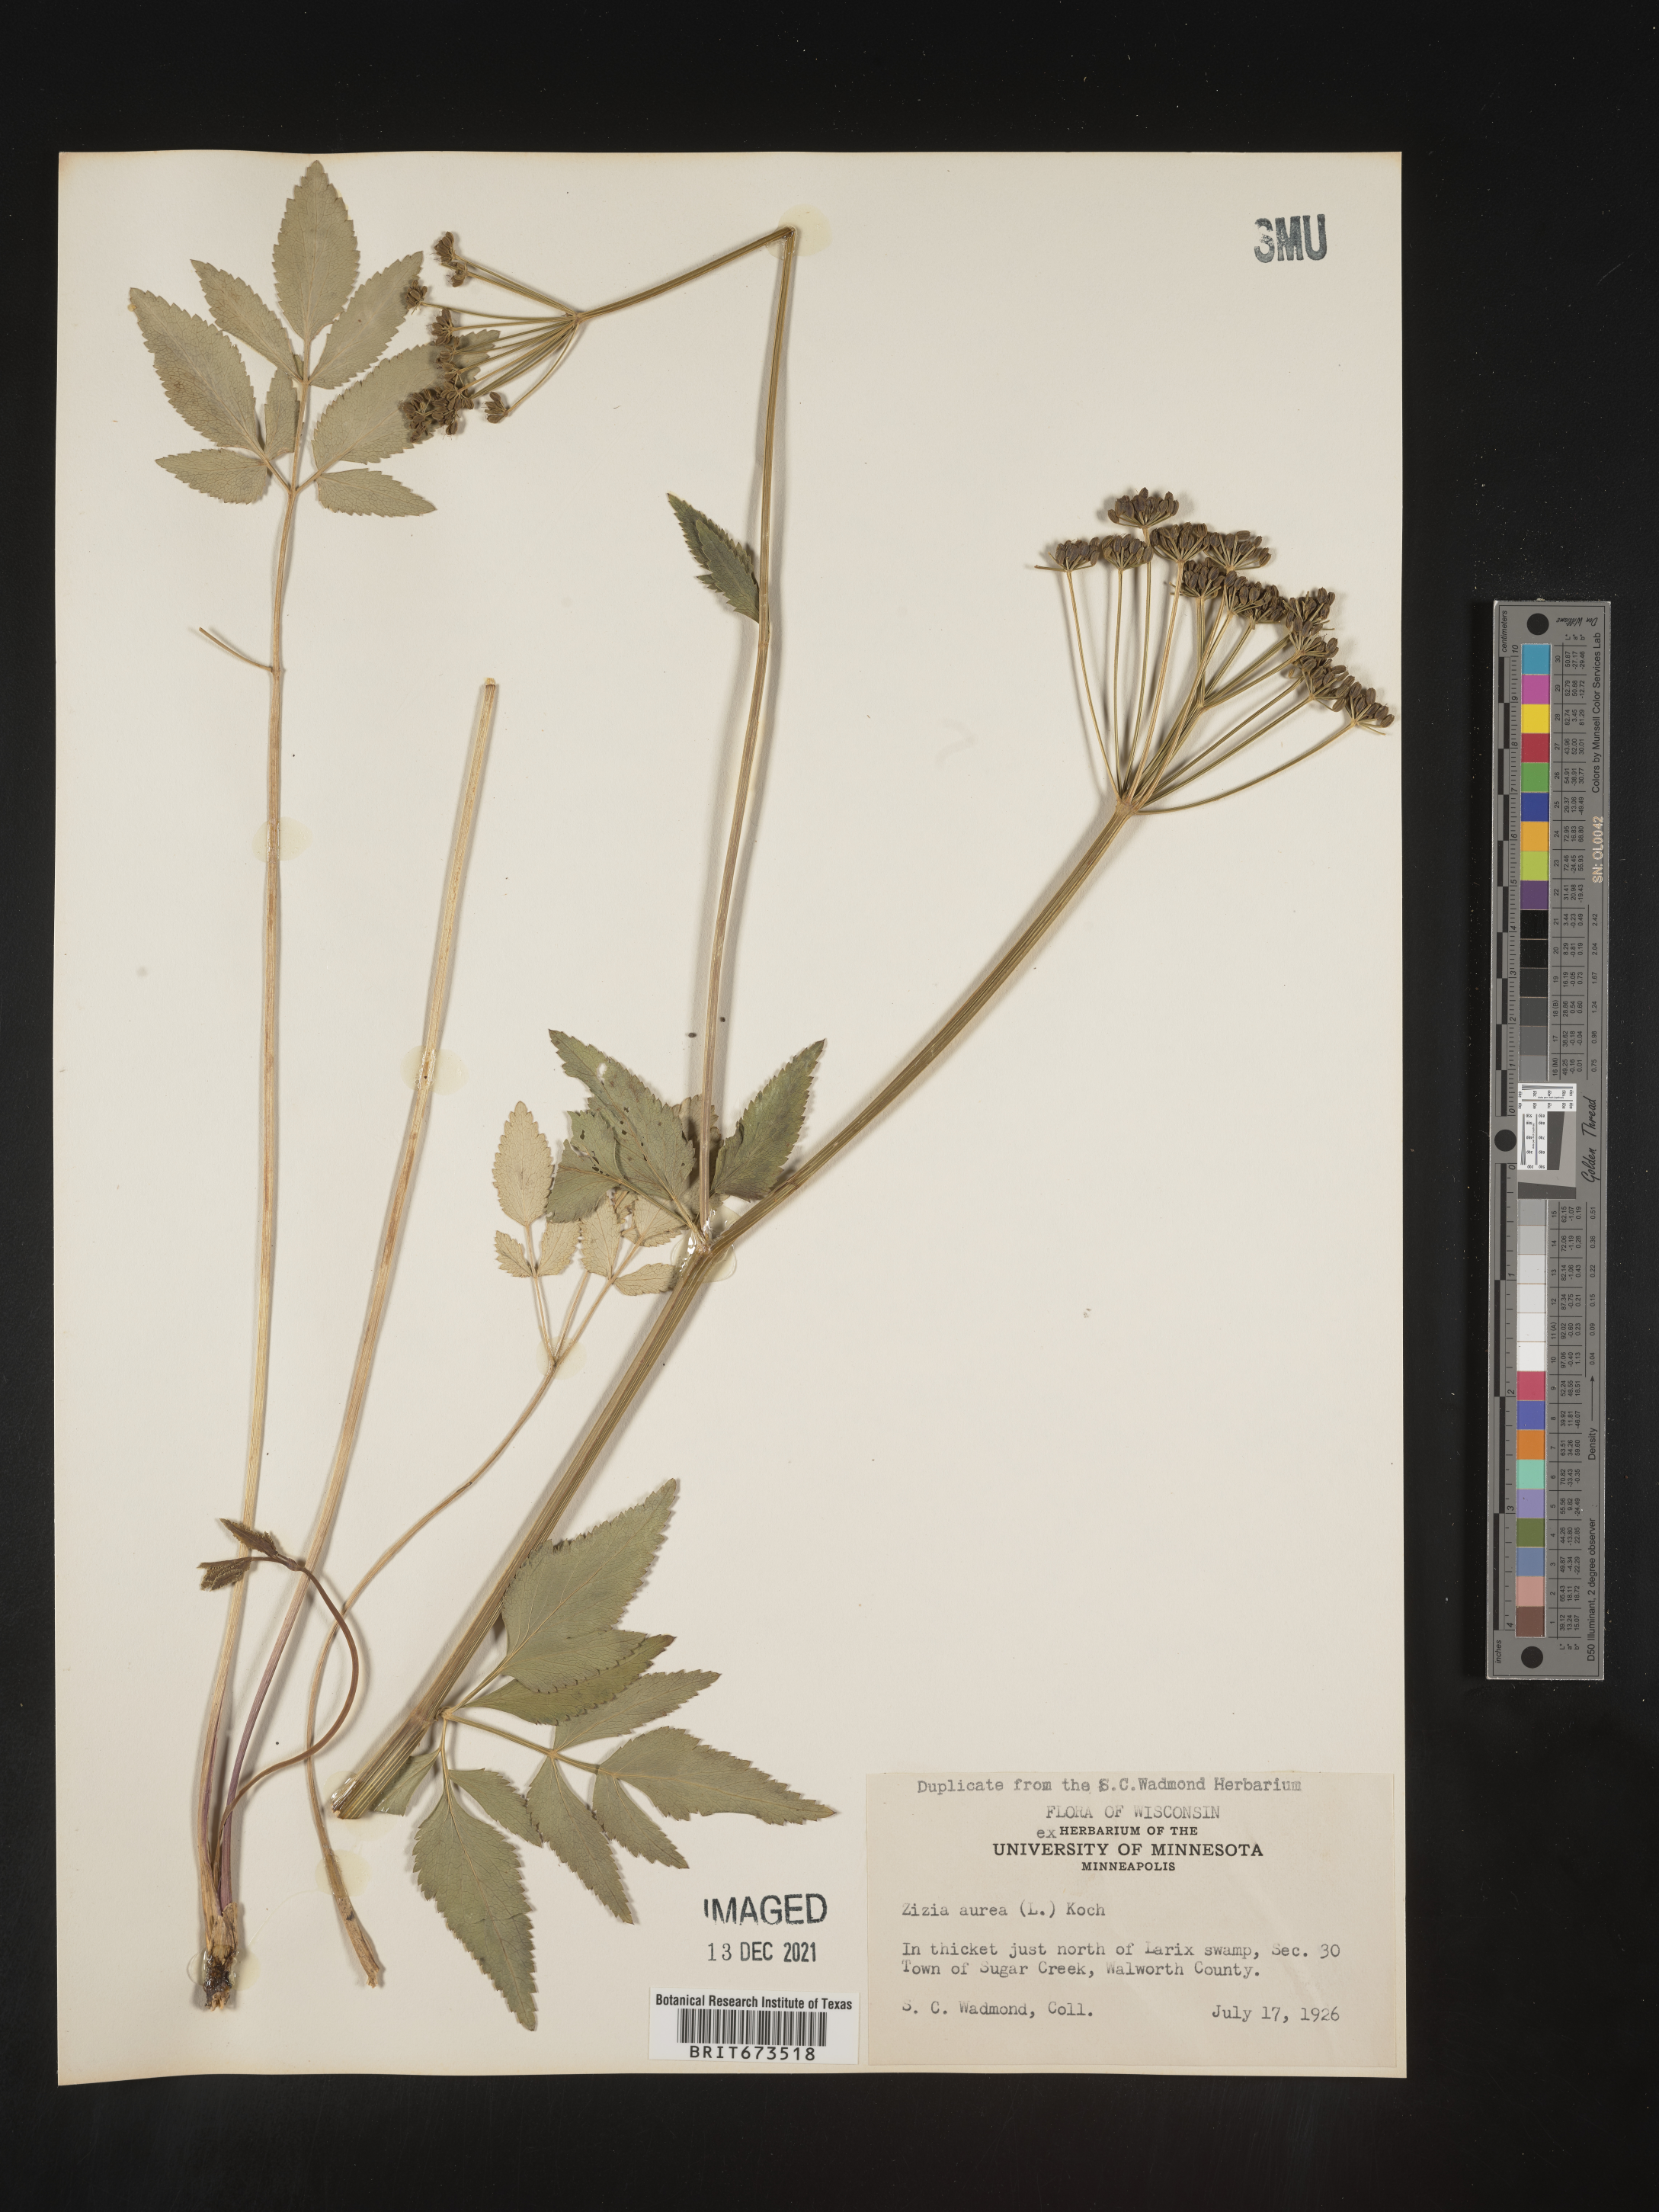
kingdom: Plantae
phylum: Tracheophyta
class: Magnoliopsida
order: Apiales
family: Apiaceae
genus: Zizia
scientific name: Zizia aurea
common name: Golden alexanders
